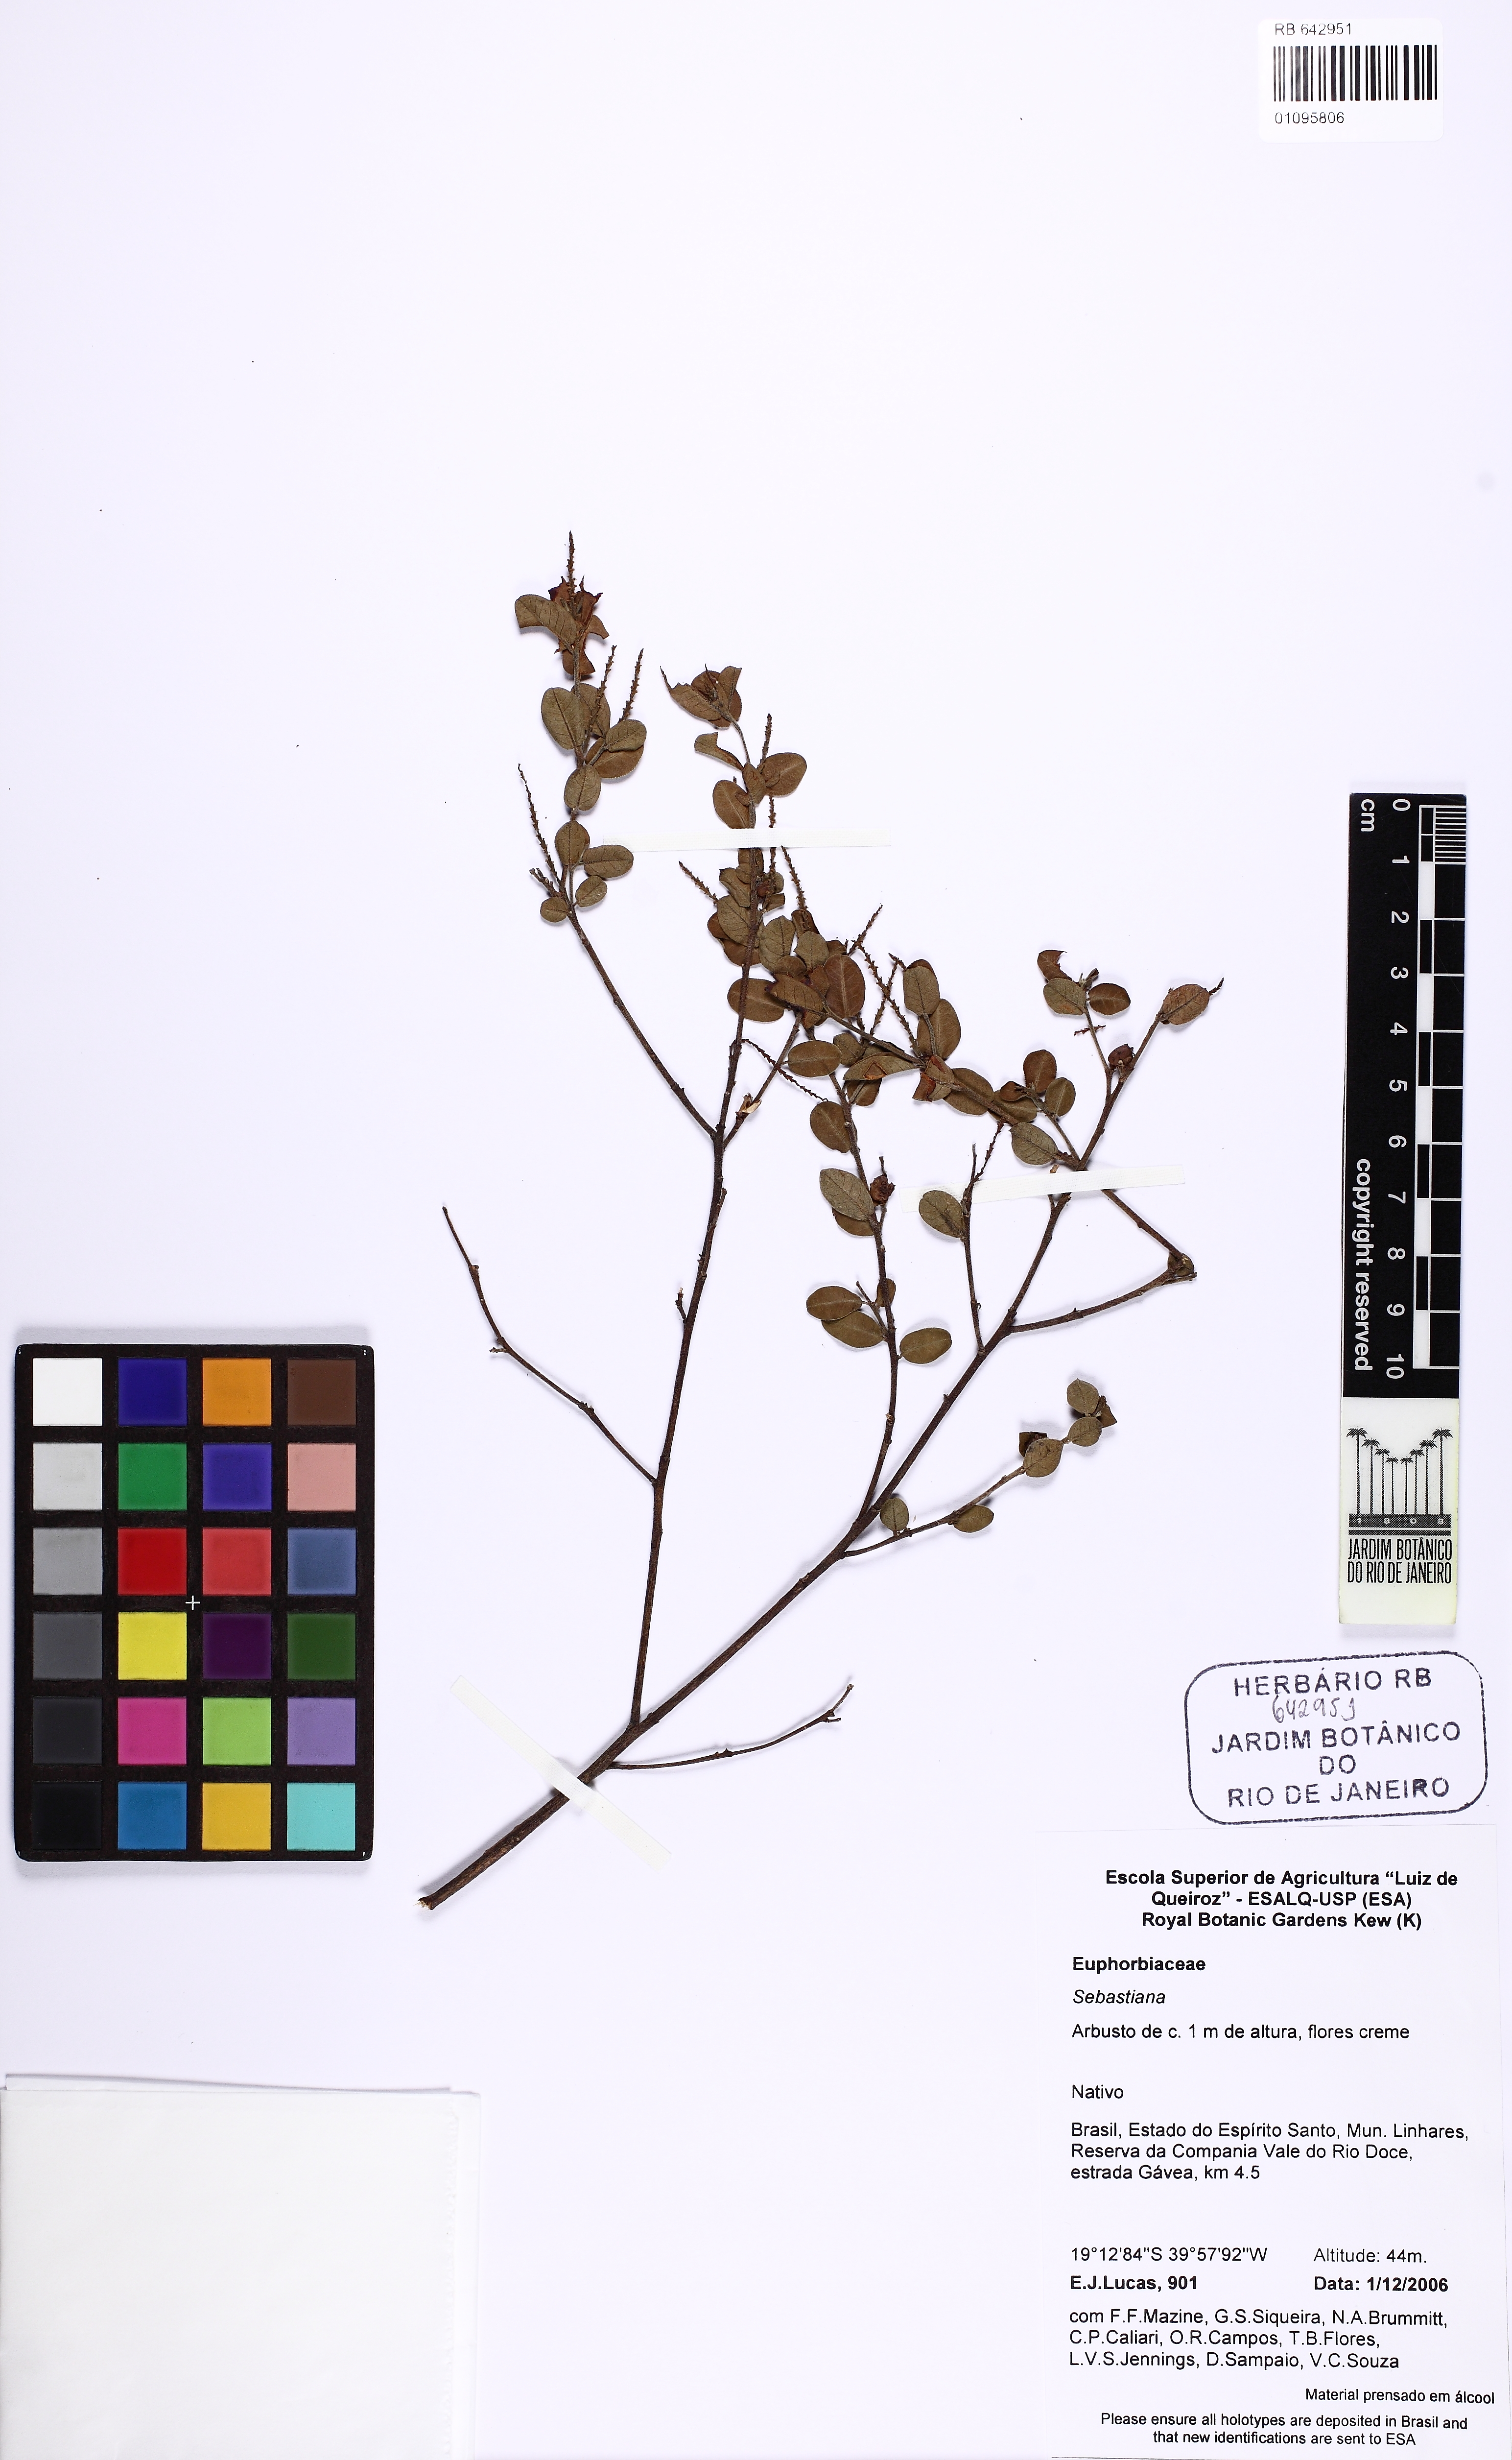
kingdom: Plantae
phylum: Tracheophyta
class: Magnoliopsida
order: Malpighiales
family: Euphorbiaceae
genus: Sebastiania
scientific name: Sebastiania
